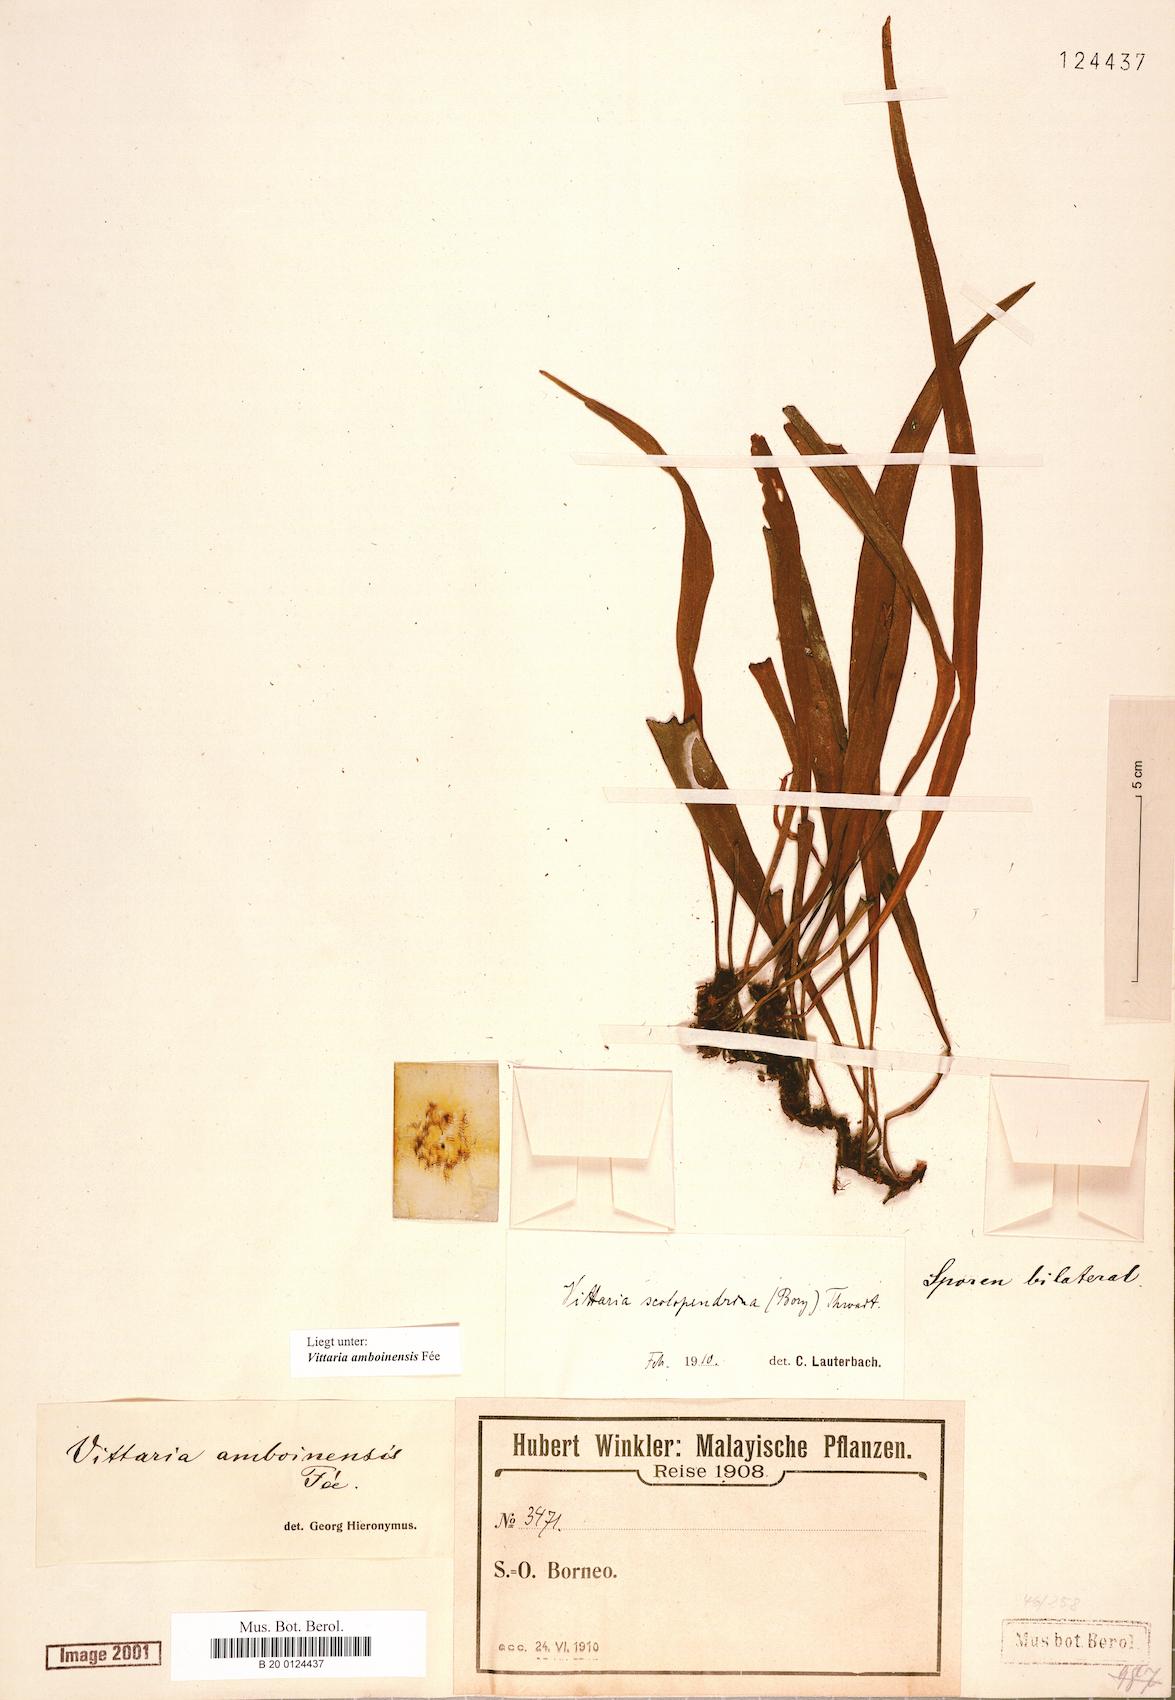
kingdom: Plantae
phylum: Tracheophyta
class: Polypodiopsida
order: Polypodiales
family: Pteridaceae
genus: Haplopteris
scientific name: Haplopteris amboinensis
